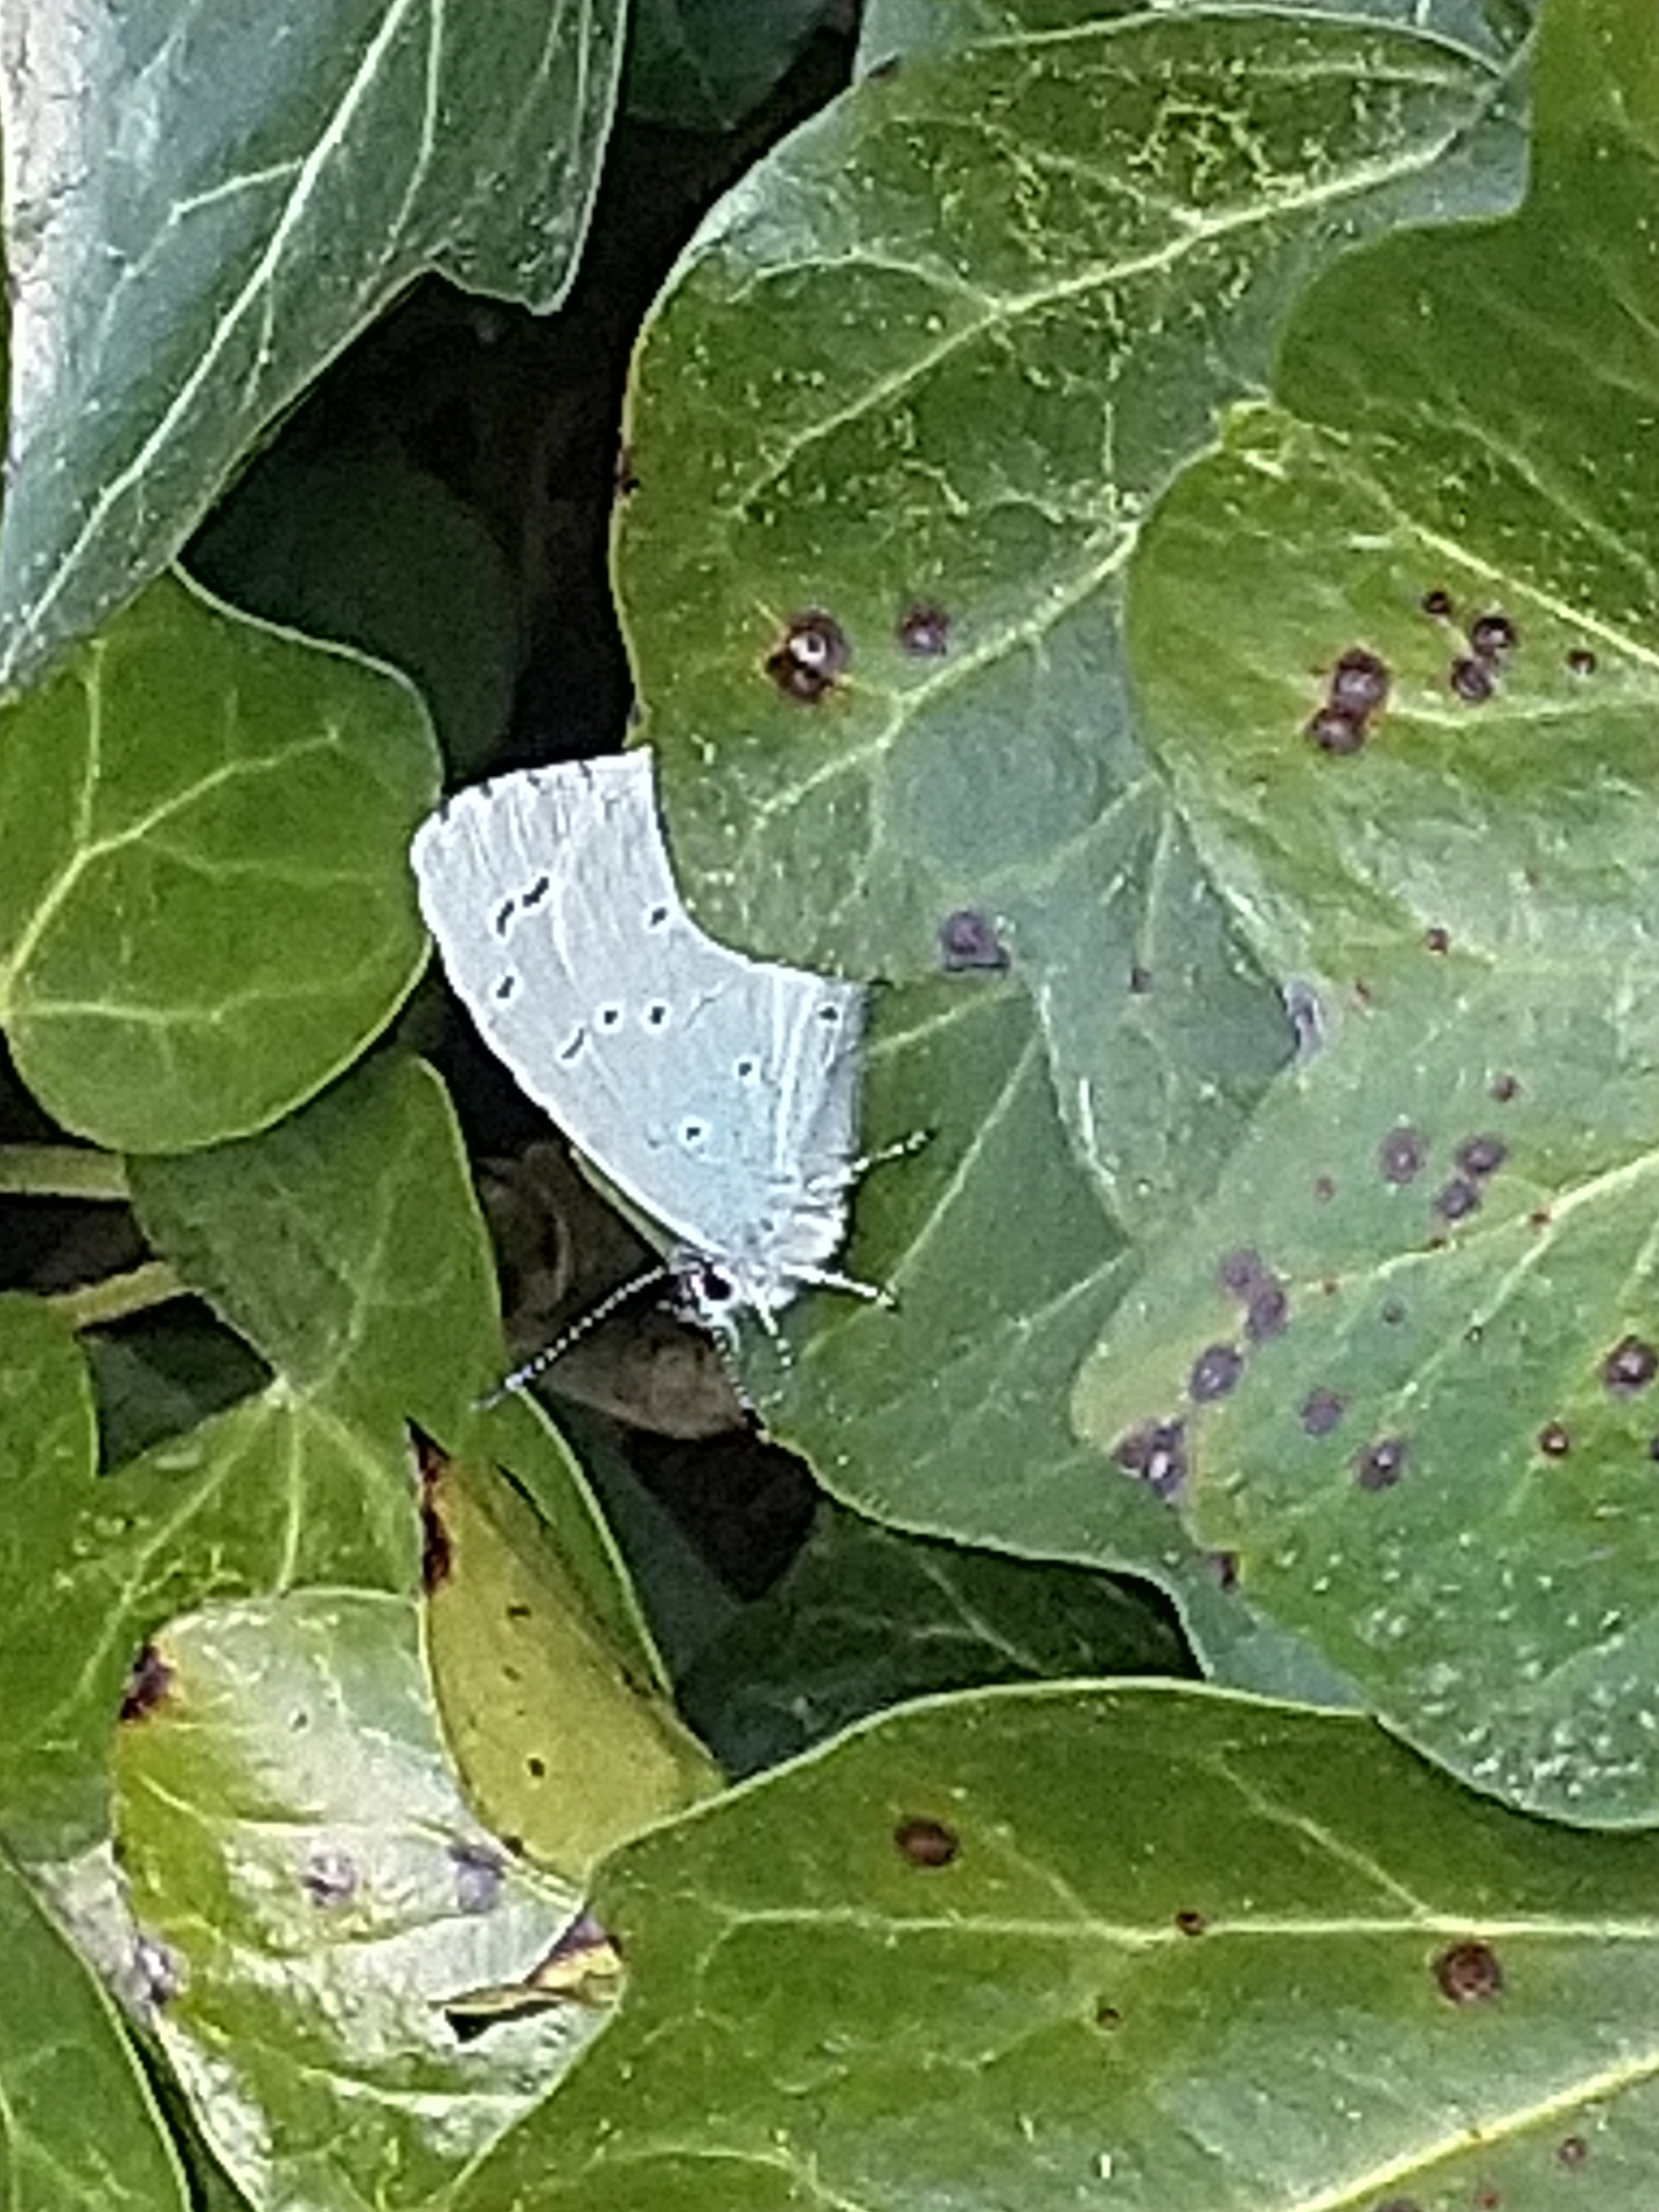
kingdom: Animalia
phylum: Arthropoda
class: Insecta
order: Lepidoptera
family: Lycaenidae
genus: Celastrina
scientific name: Celastrina argiolus
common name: Skovblåfugl
